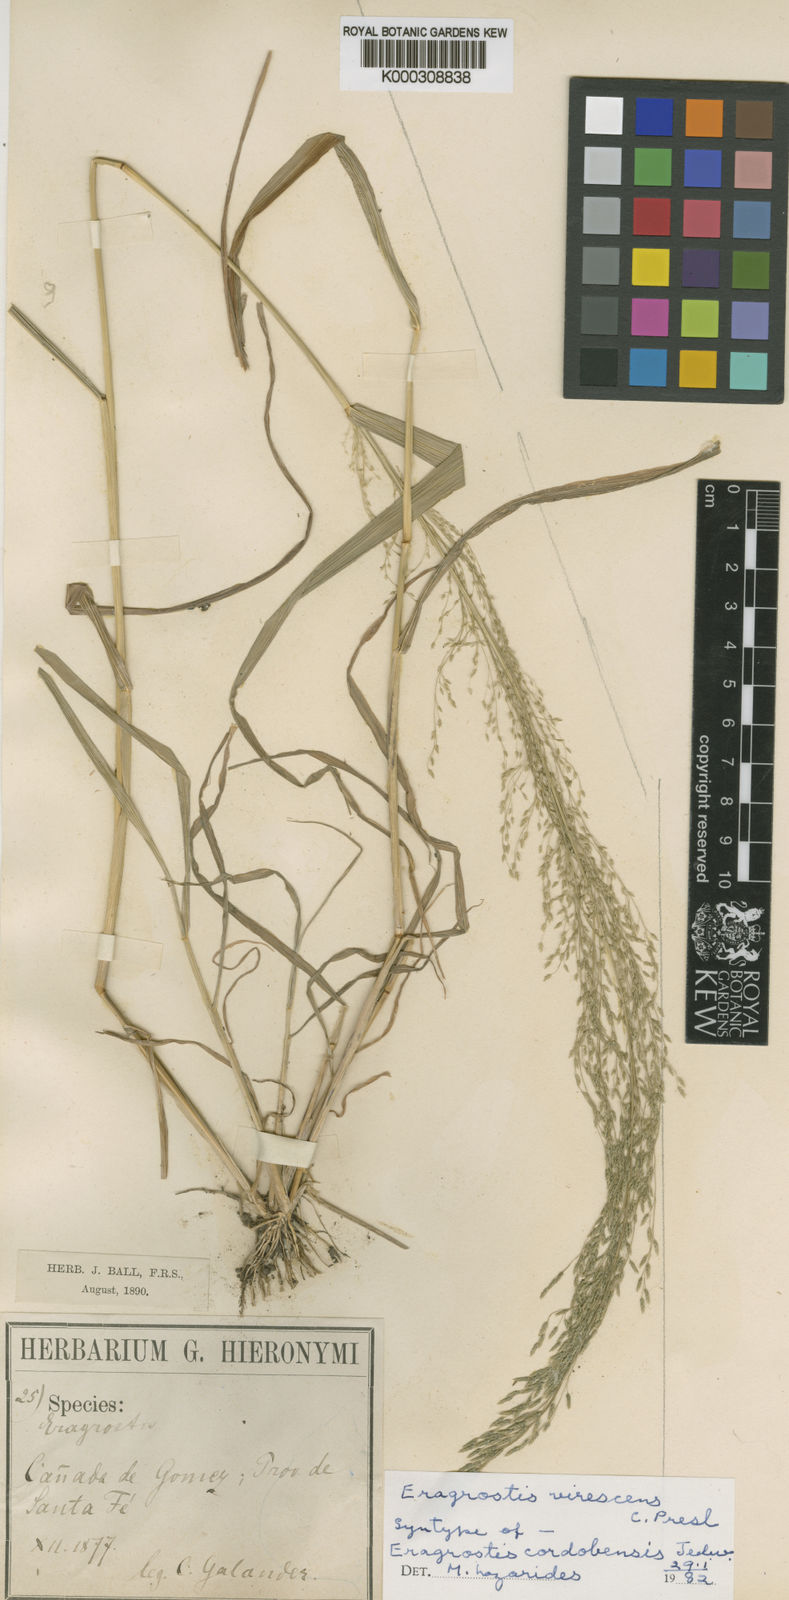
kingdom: Plantae
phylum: Tracheophyta
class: Liliopsida
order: Poales
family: Poaceae
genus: Eragrostis
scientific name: Eragrostis virescens
